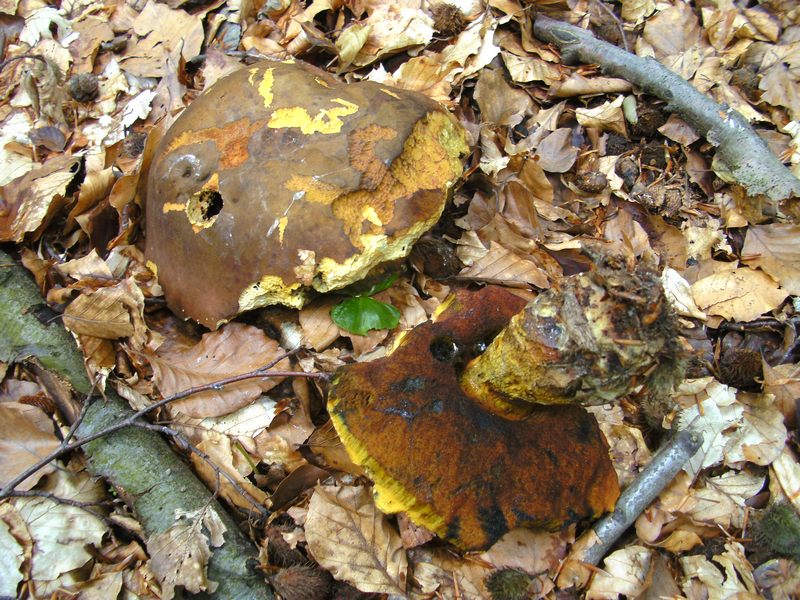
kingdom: Fungi
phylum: Basidiomycota
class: Agaricomycetes
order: Boletales
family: Boletaceae
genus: Neoboletus
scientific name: Neoboletus erythropus
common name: punktstokket indigorørhat
